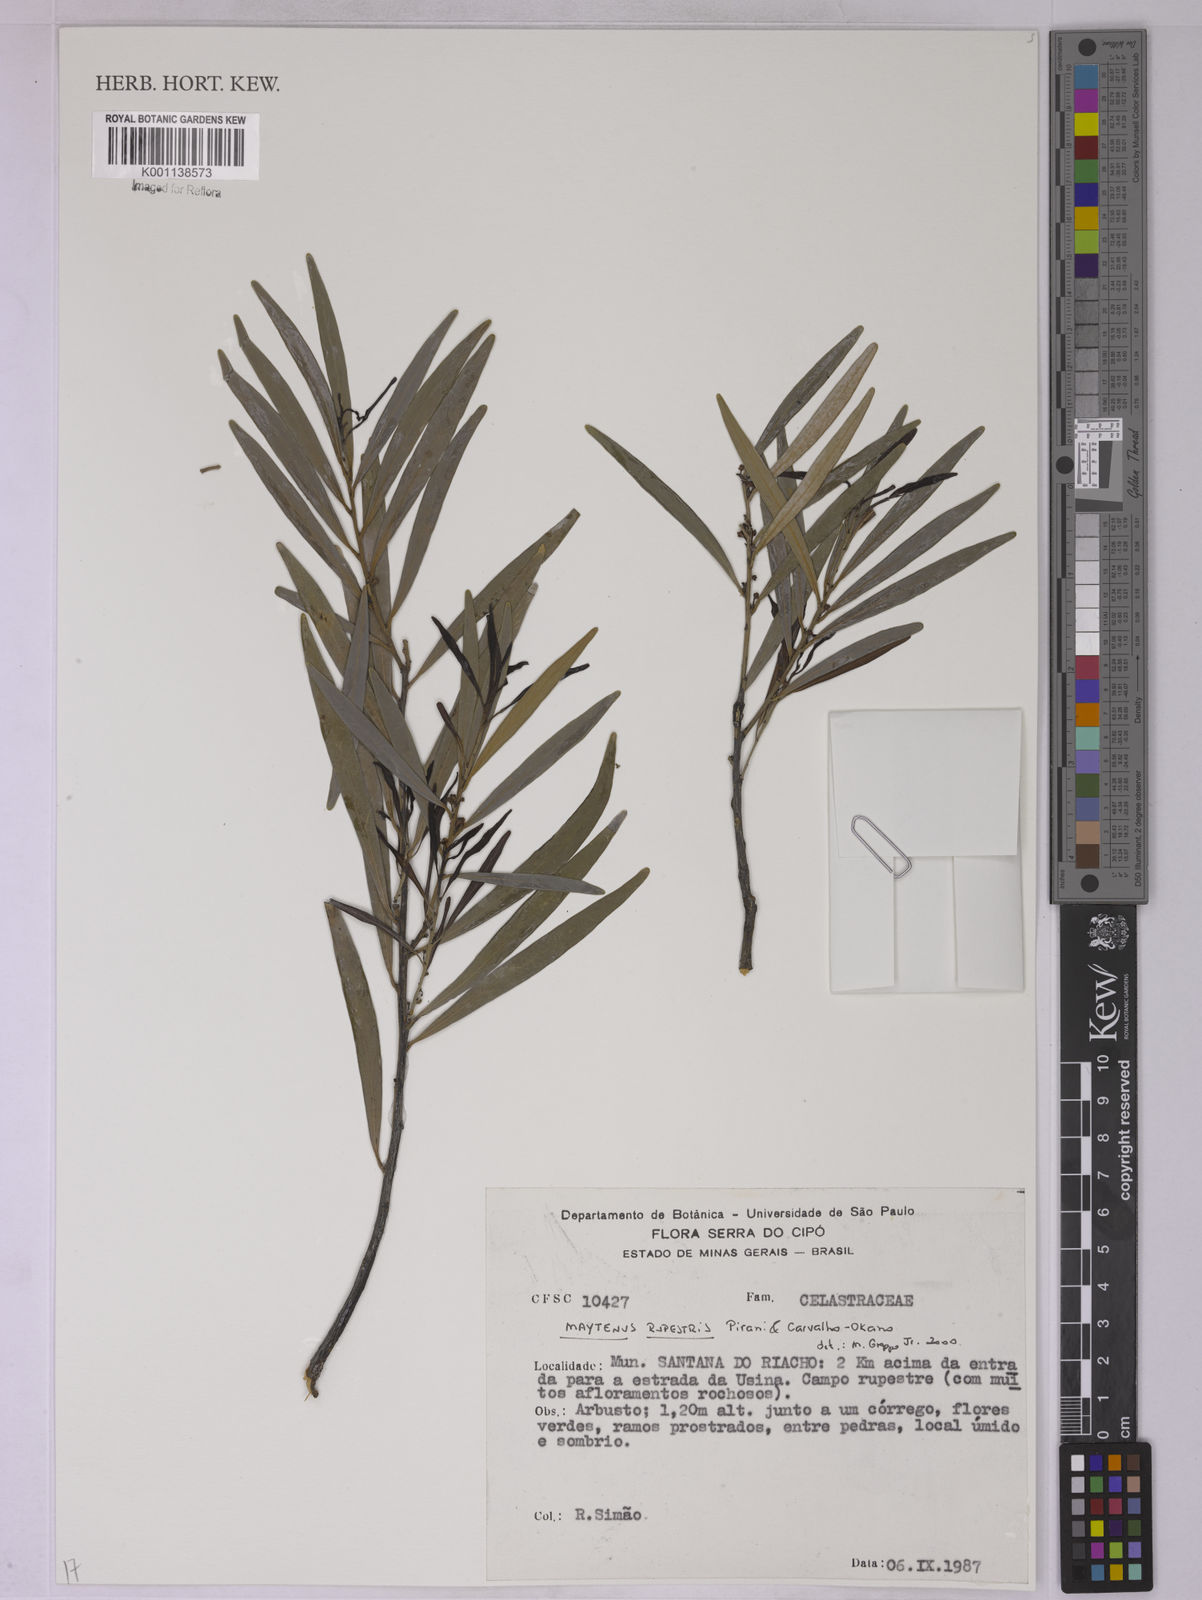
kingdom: Plantae
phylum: Tracheophyta
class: Magnoliopsida
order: Celastrales
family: Celastraceae
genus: Monteverdia
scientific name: Monteverdia rupestris
